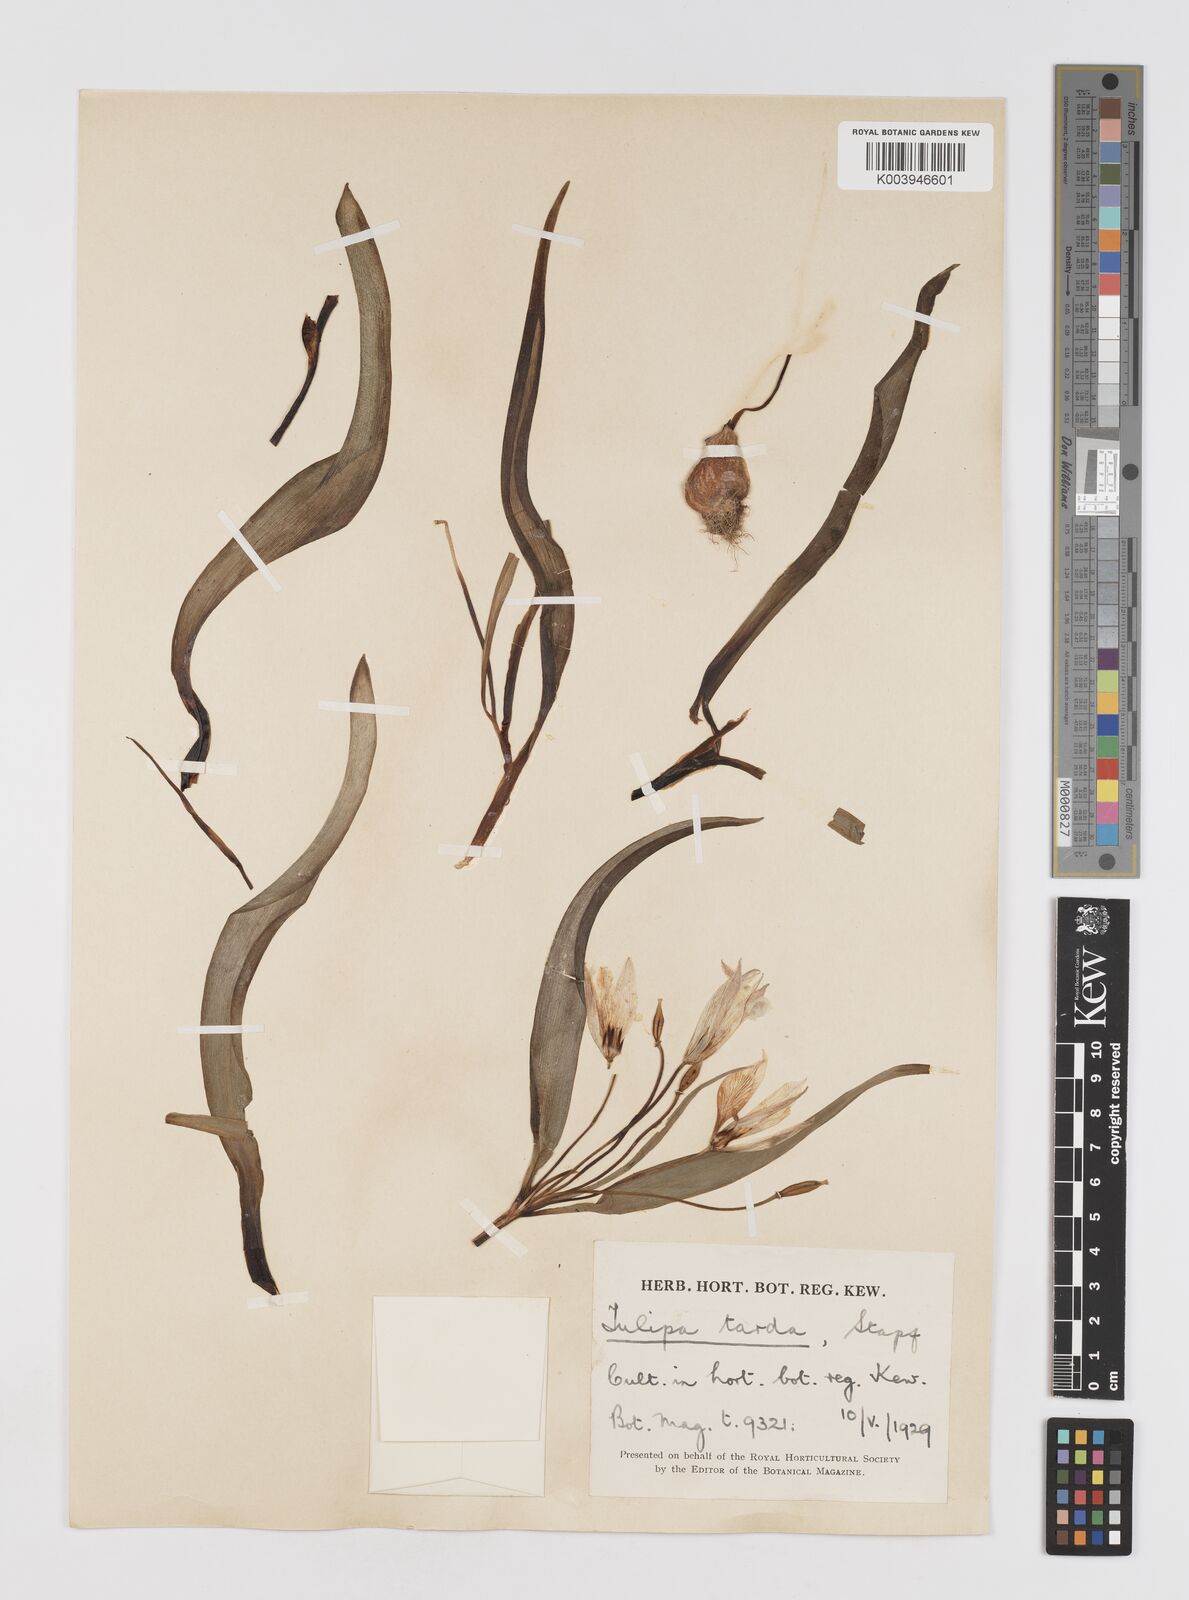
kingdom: Plantae
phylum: Tracheophyta
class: Liliopsida
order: Liliales
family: Liliaceae
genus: Tulipa
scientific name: Tulipa urumiensis
